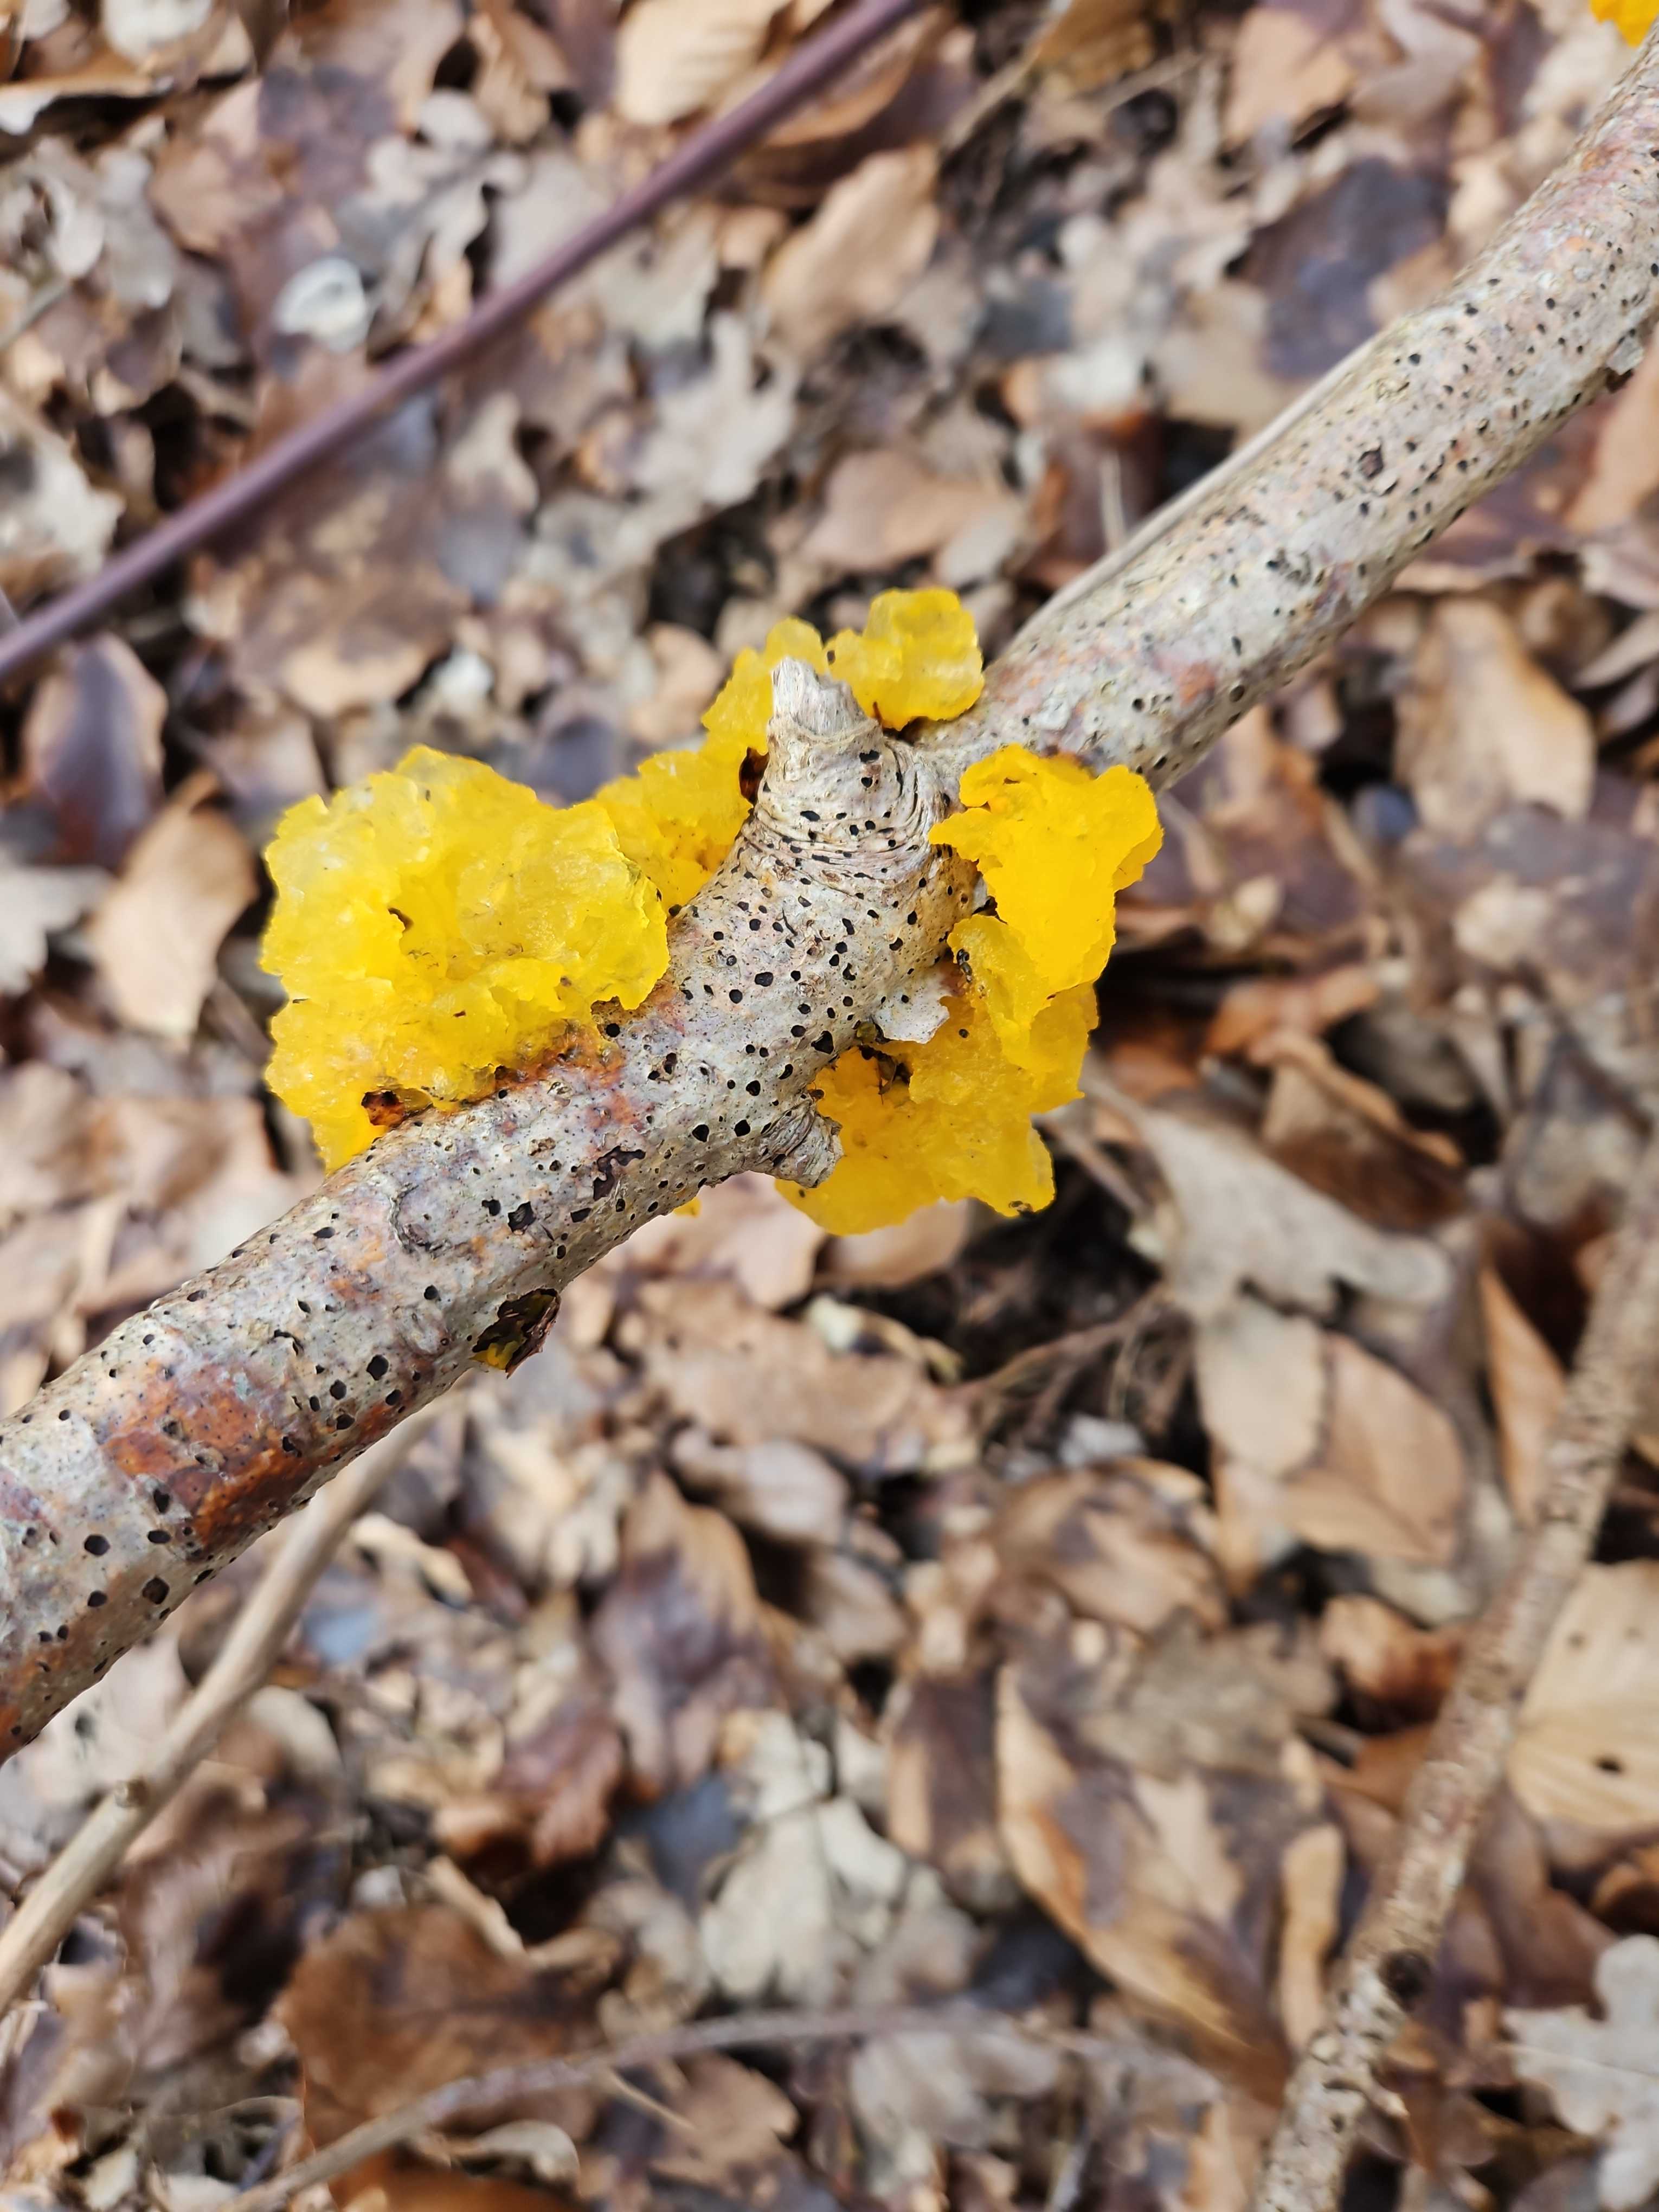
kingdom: Fungi
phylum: Basidiomycota
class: Tremellomycetes
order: Tremellales
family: Tremellaceae
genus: Tremella
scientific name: Tremella mesenterica
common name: gul bævresvamp
